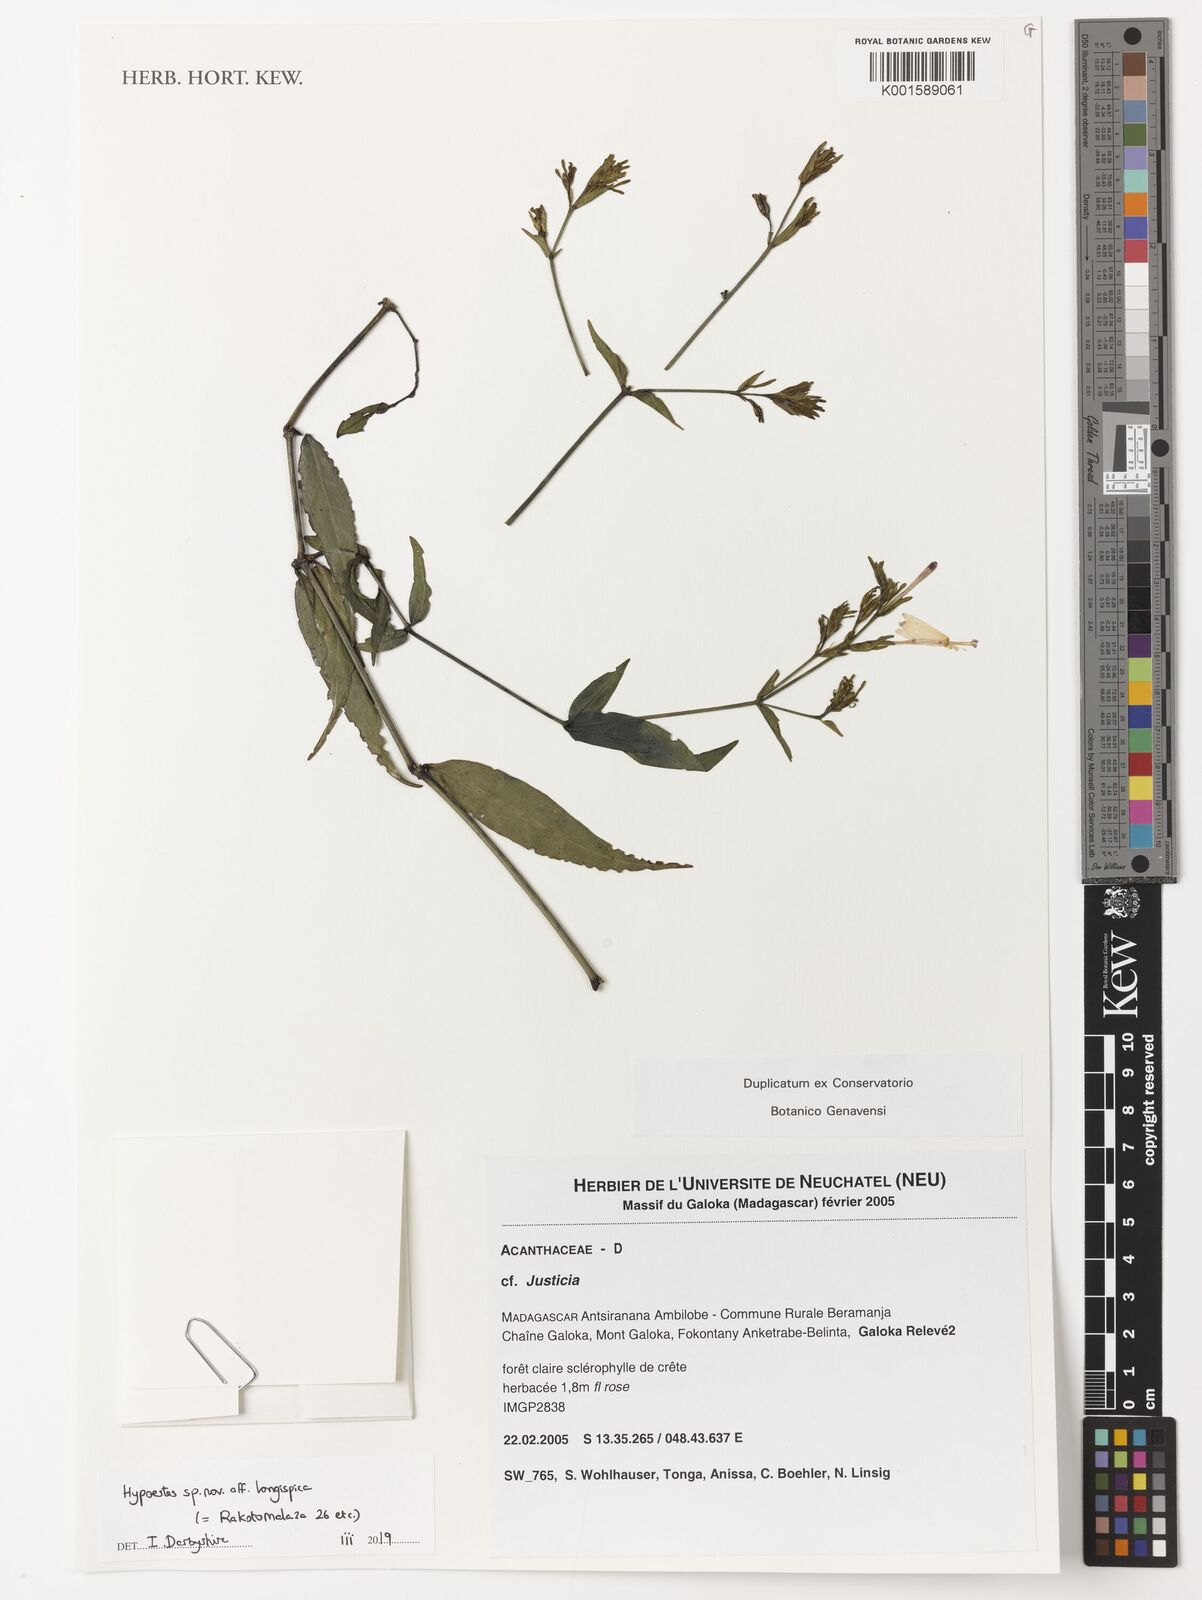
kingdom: Plantae
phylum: Tracheophyta
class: Magnoliopsida
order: Lamiales
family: Acanthaceae
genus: Justicia
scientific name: Justicia
